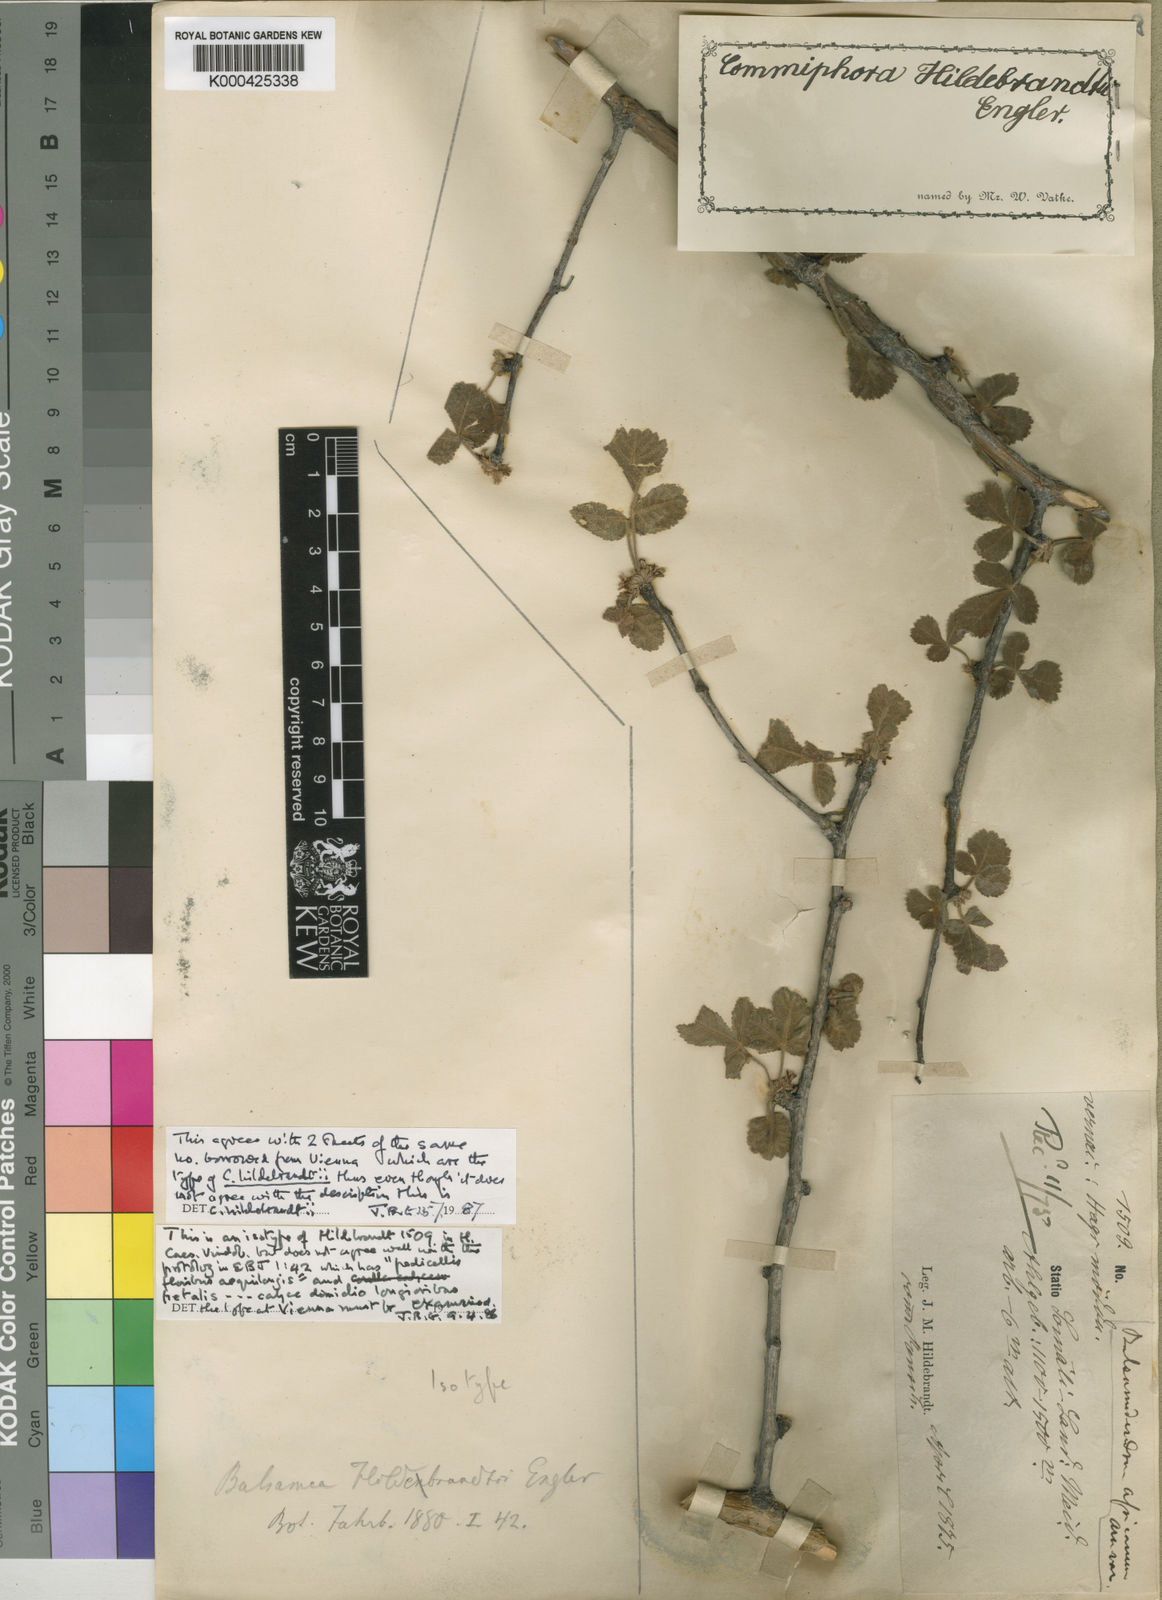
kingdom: Plantae
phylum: Tracheophyta
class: Magnoliopsida
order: Sapindales
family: Burseraceae
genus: Commiphora
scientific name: Commiphora hildebrandtii
